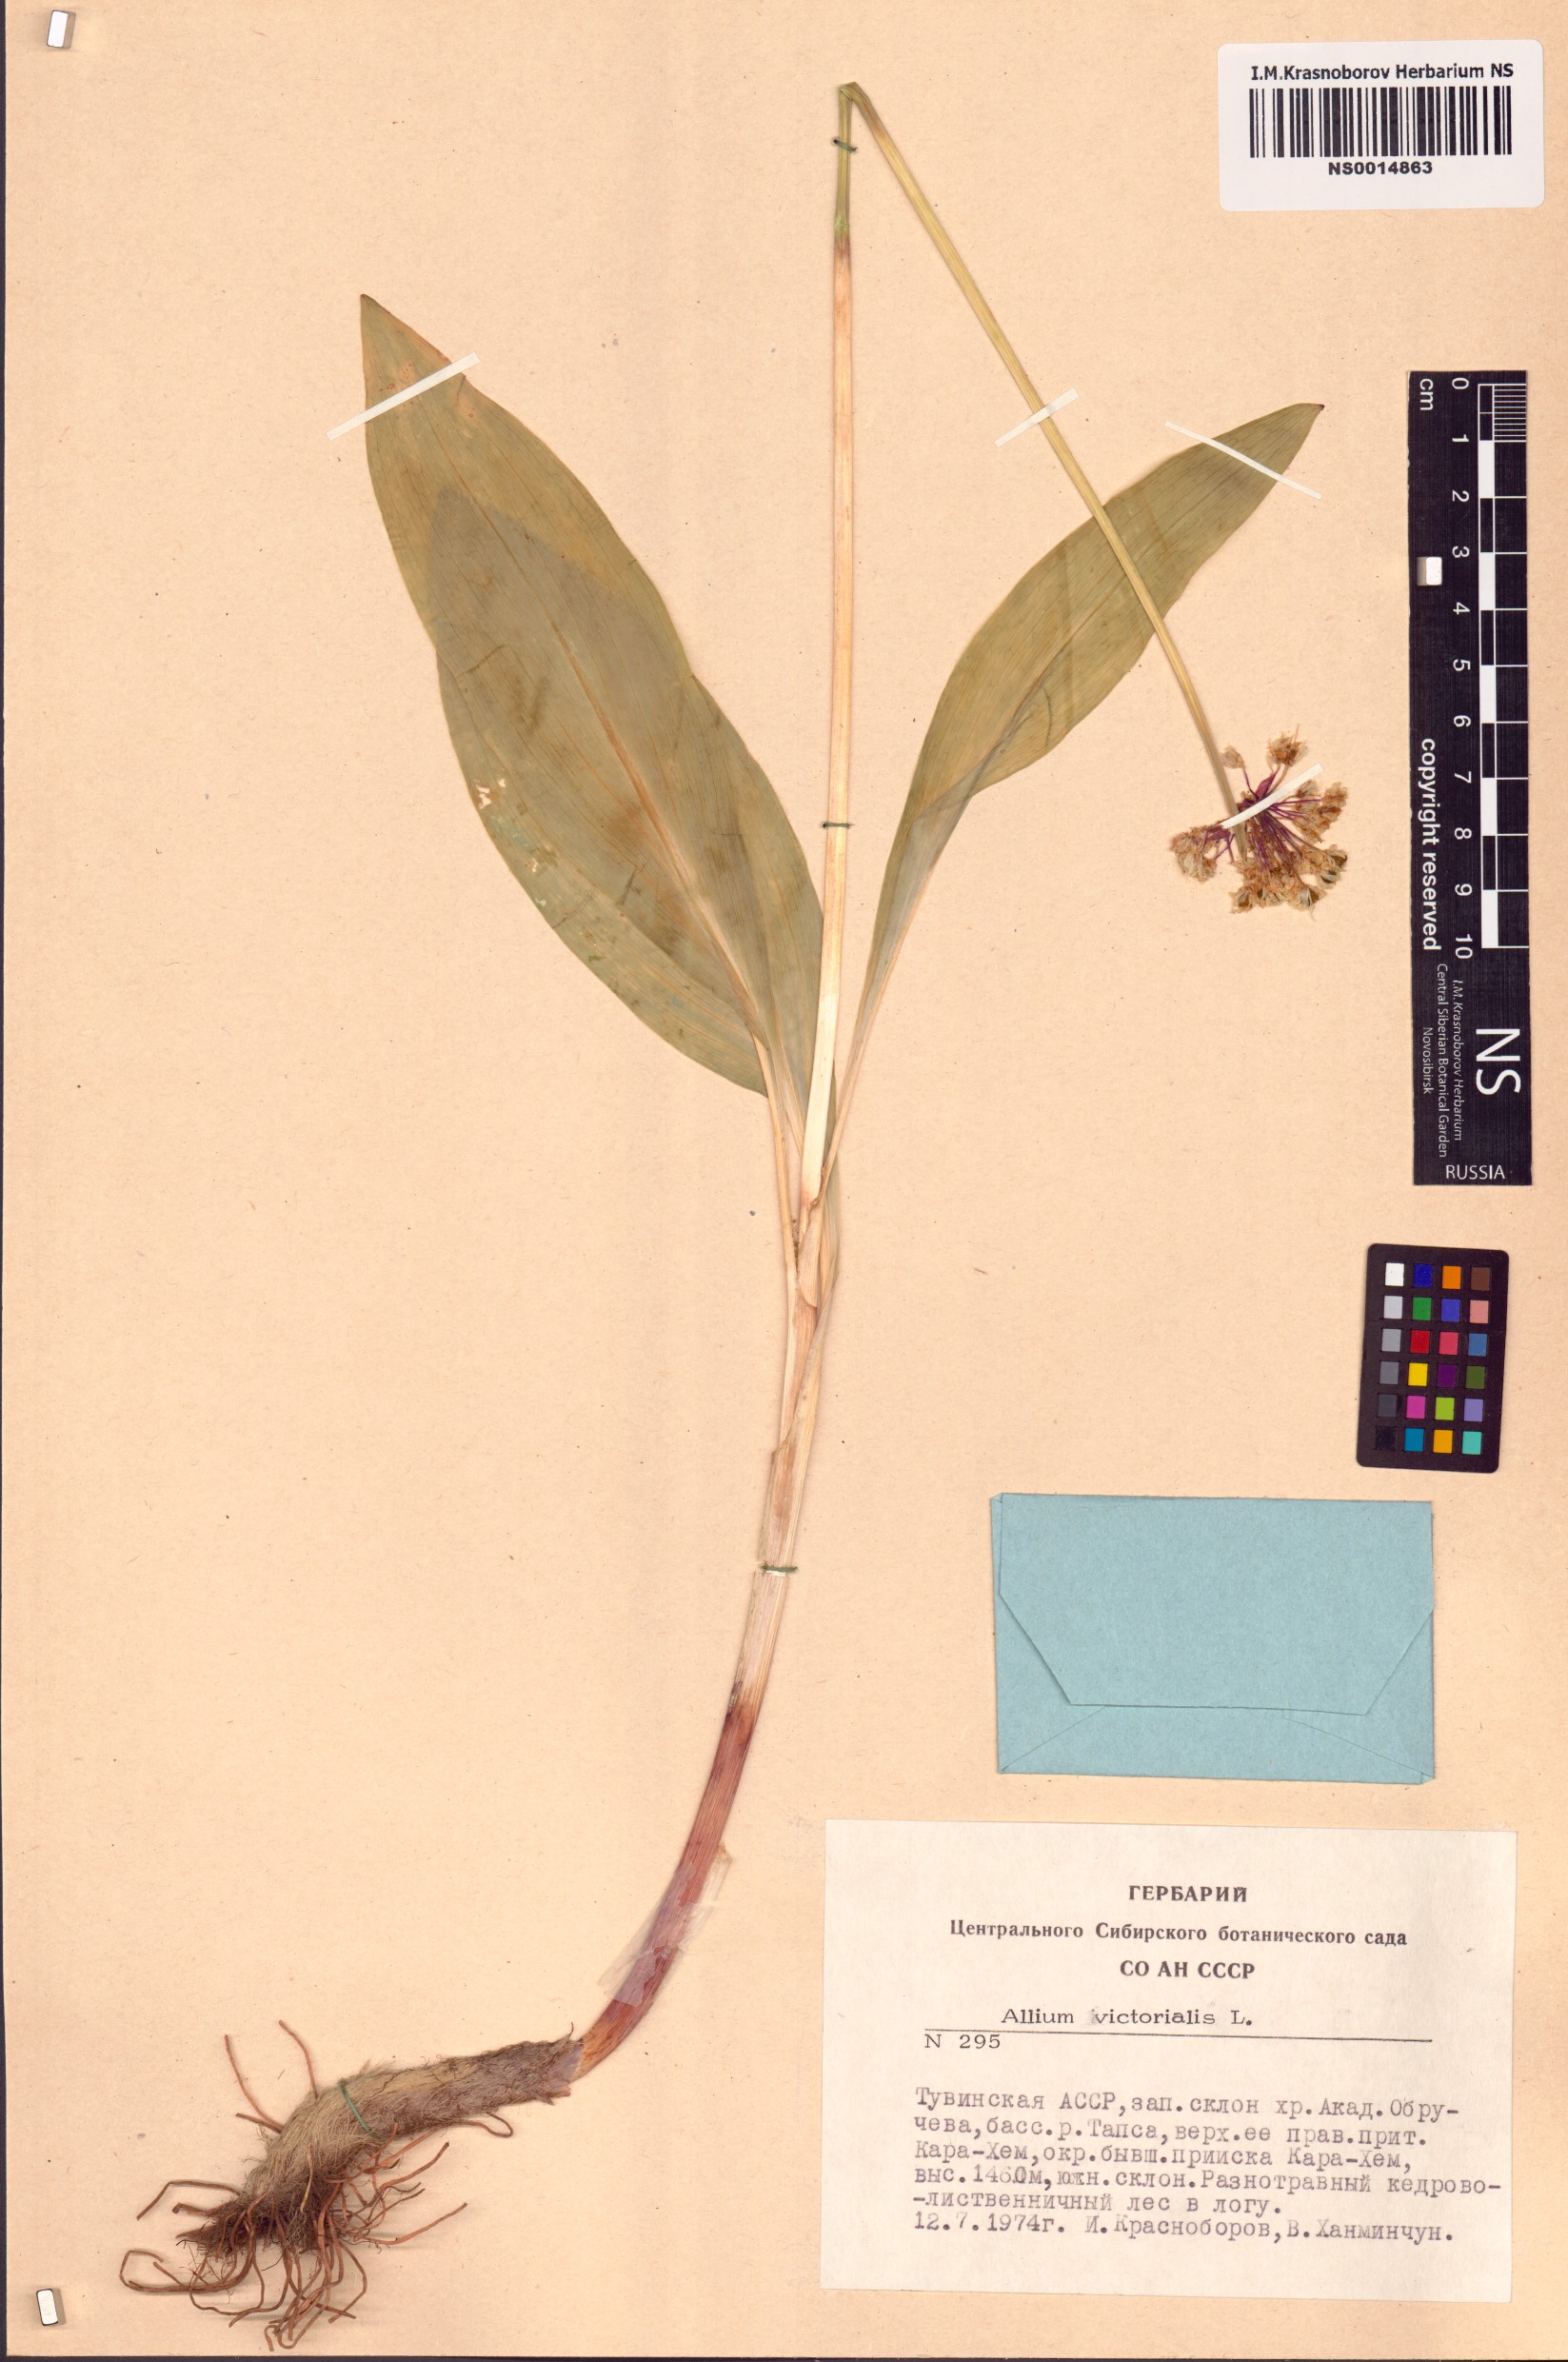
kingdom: Plantae
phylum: Tracheophyta
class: Liliopsida
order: Asparagales
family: Amaryllidaceae
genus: Allium
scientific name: Allium victorialis
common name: Alpine leek
